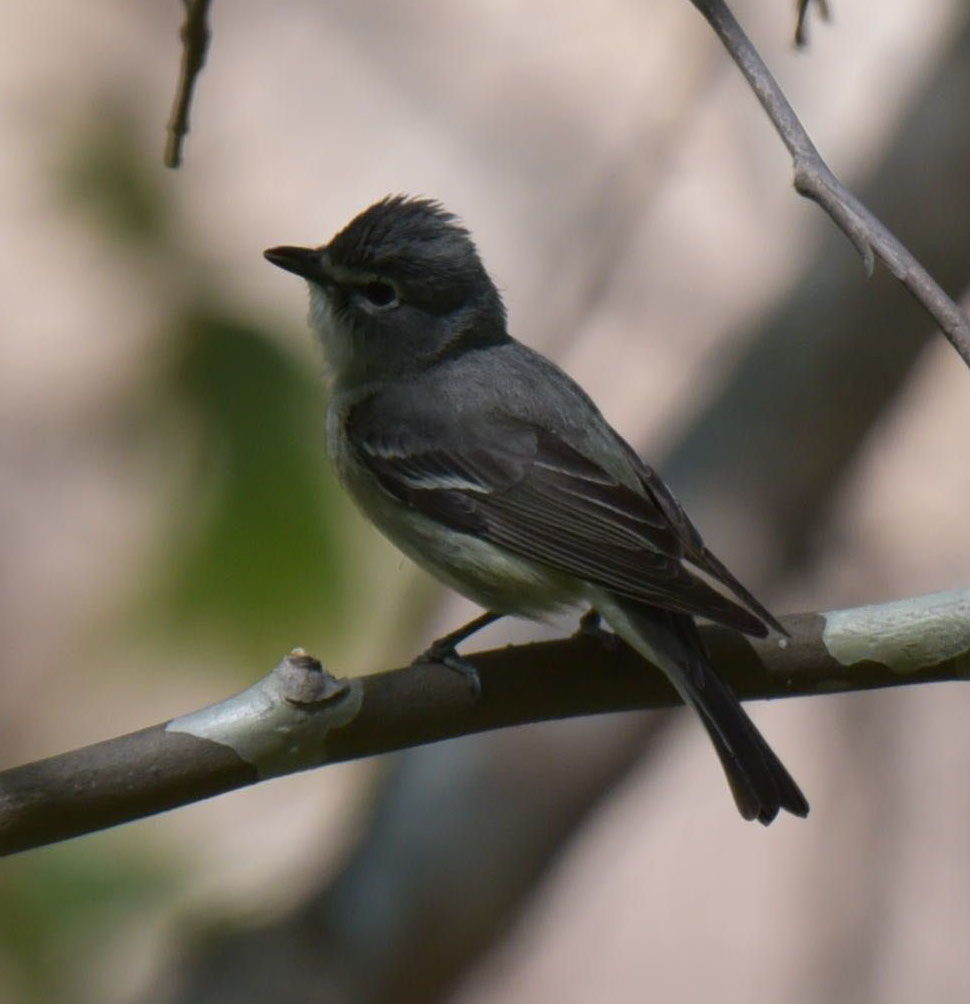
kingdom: Animalia
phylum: Chordata
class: Aves
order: Passeriformes
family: Vireonidae
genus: Vireo
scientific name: Vireo plumbeus
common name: Plumbeous vireo
